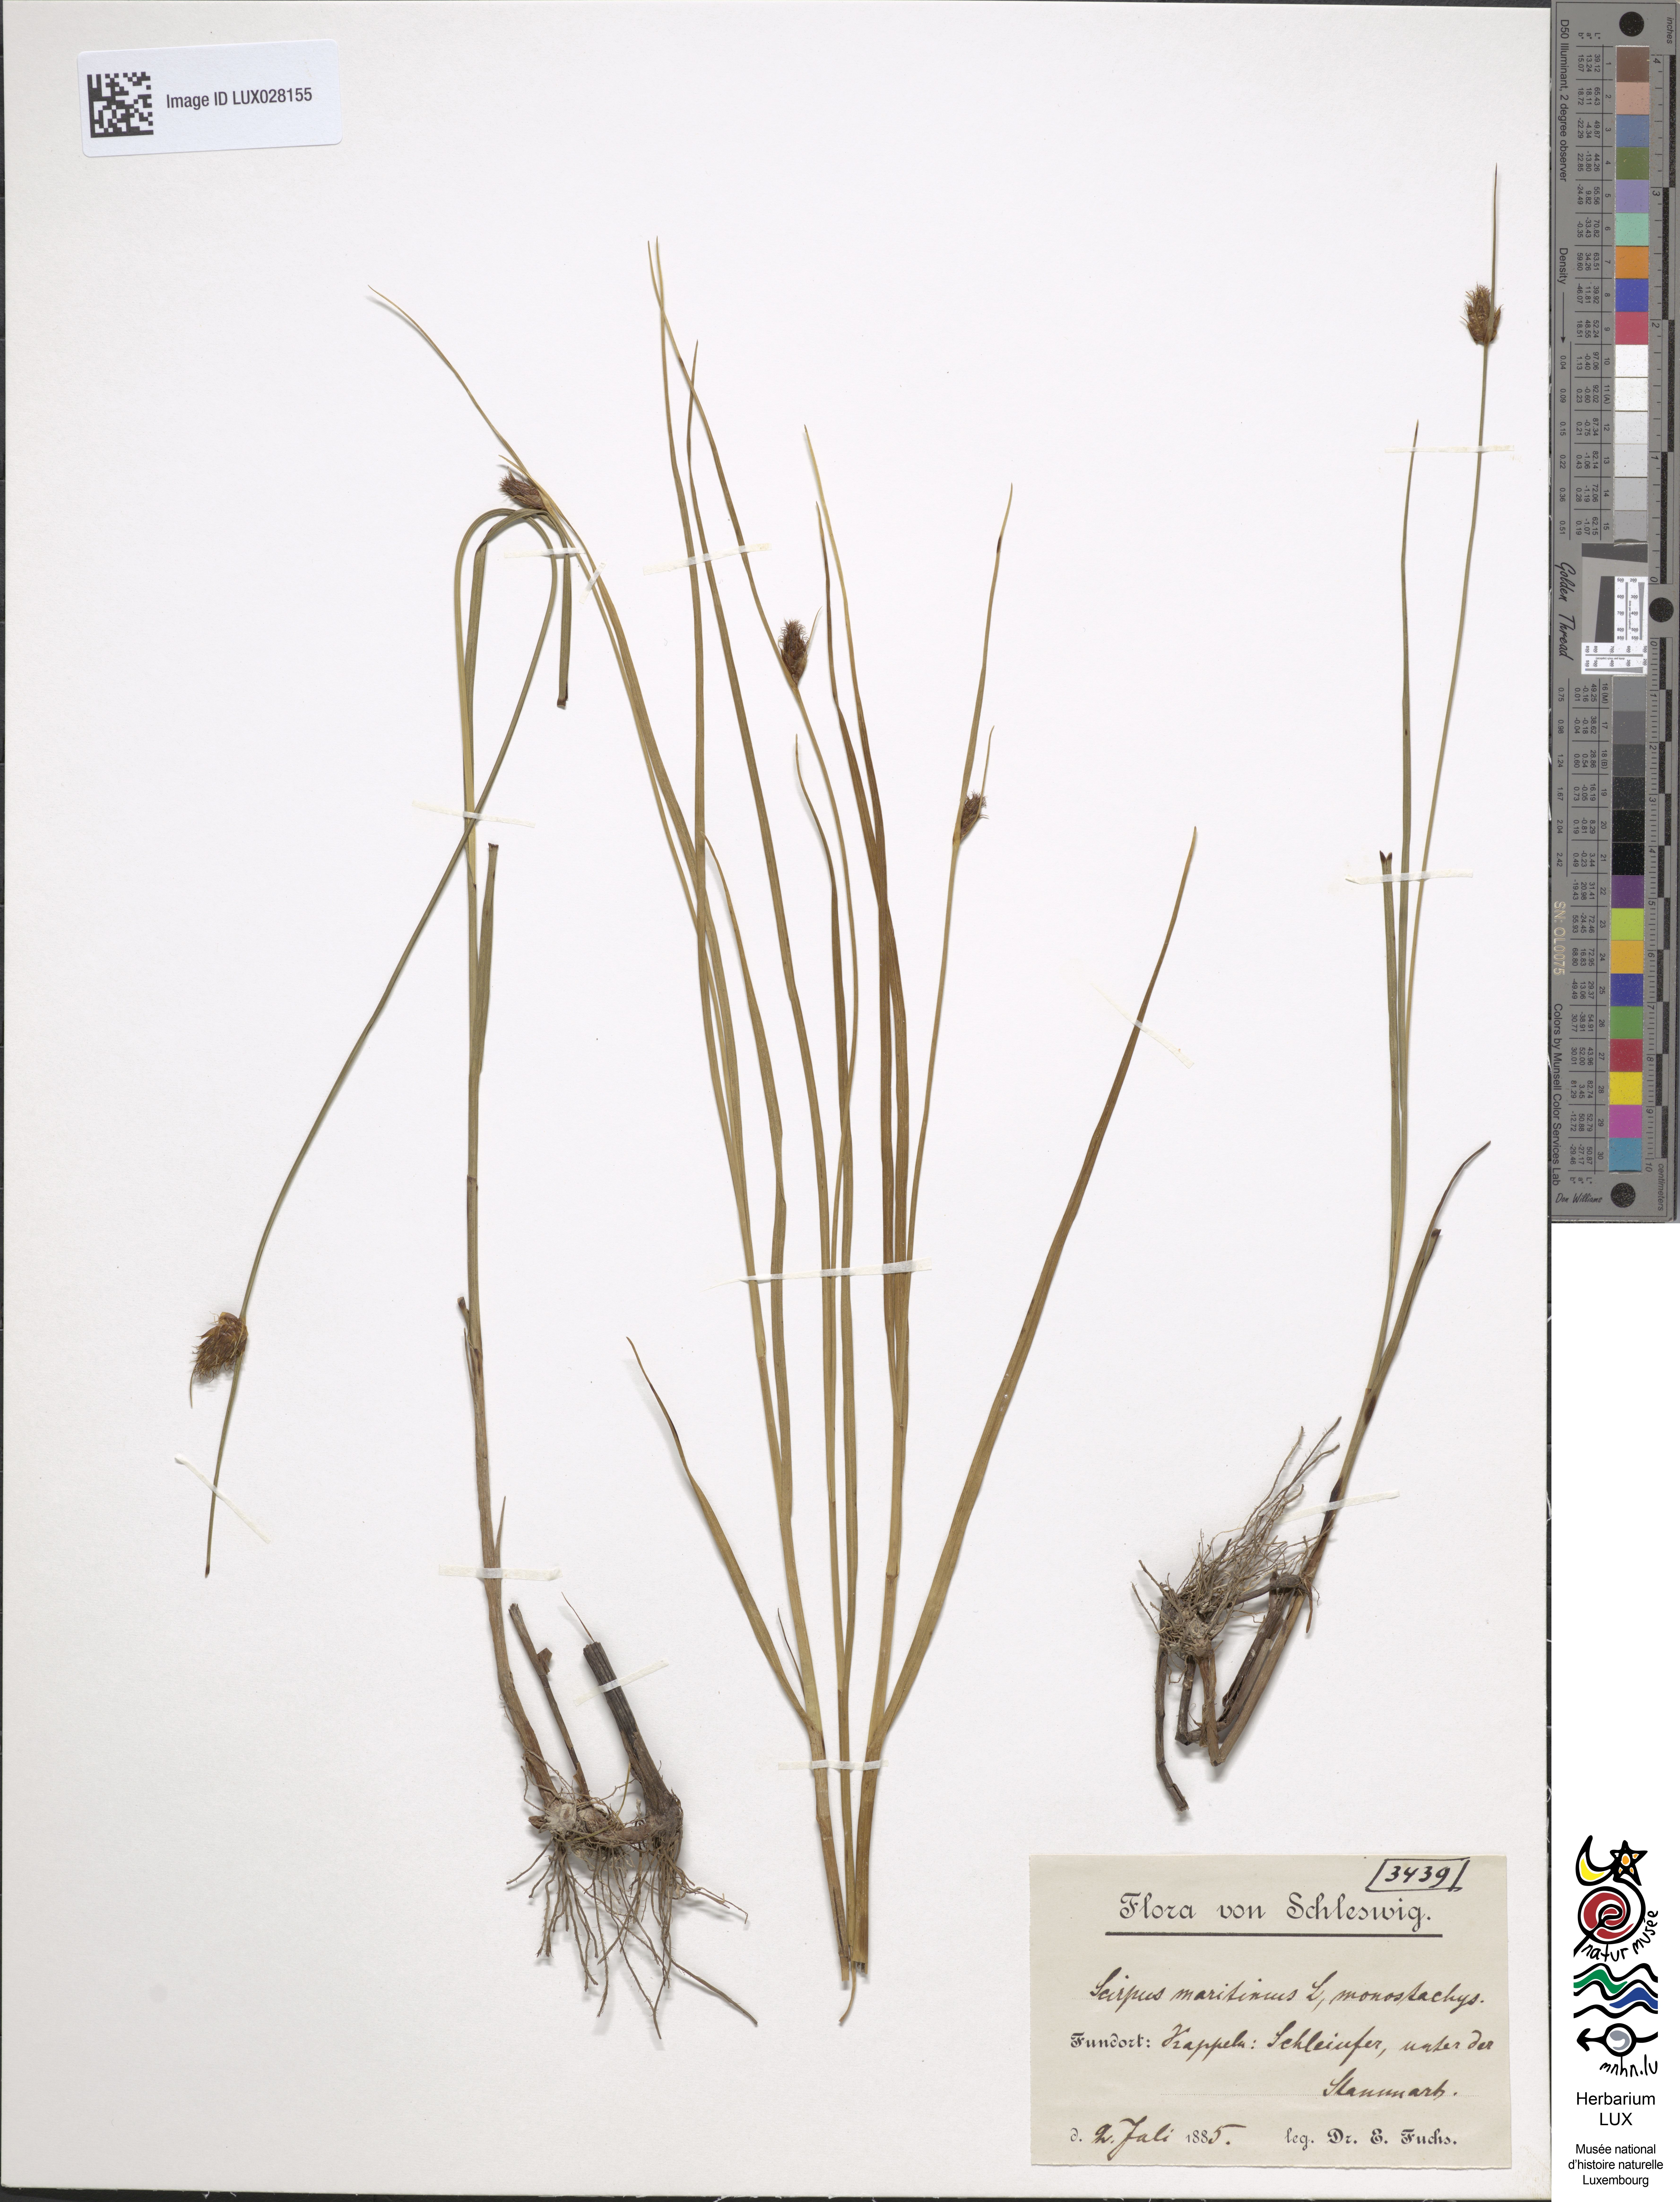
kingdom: Plantae
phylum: Tracheophyta
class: Liliopsida
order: Poales
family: Cyperaceae
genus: Bolboschoenus
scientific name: Bolboschoenus maritimus
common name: Sea club-rush
